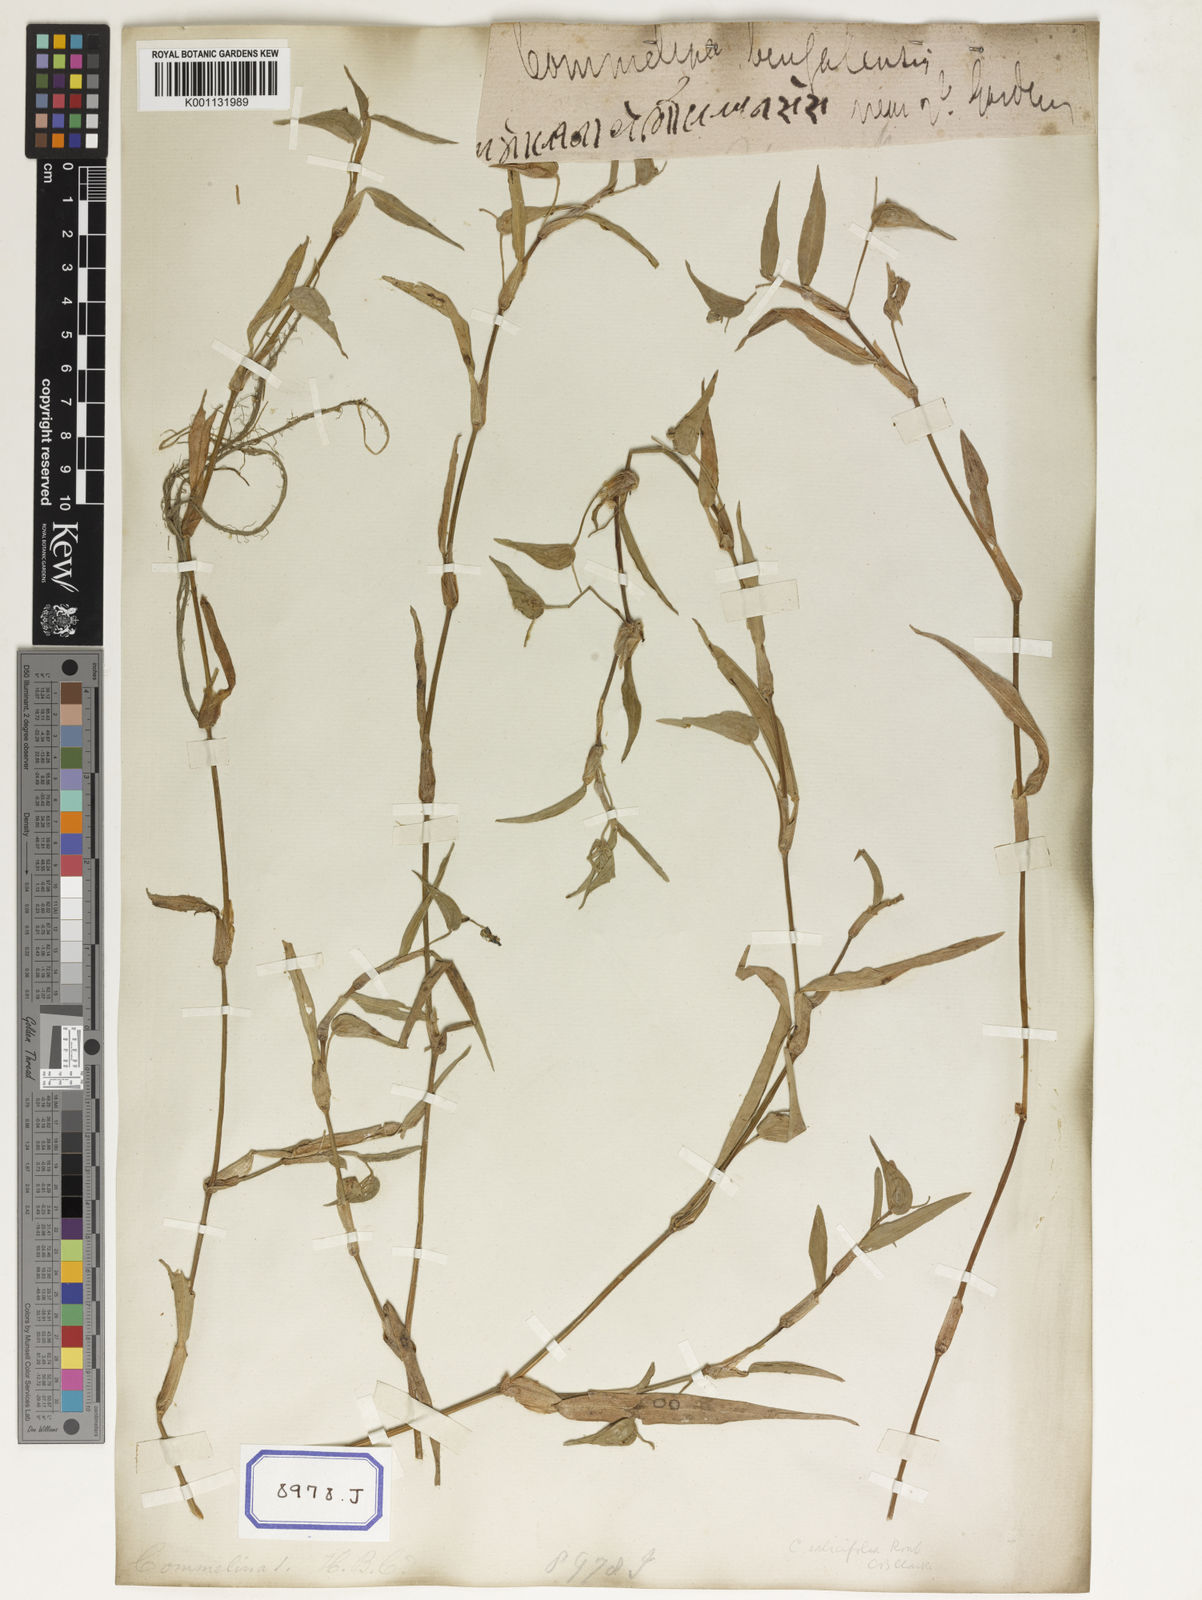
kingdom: Plantae
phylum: Tracheophyta
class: Liliopsida
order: Commelinales
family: Commelinaceae
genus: Commelina
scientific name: Commelina communis
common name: Asiatic dayflower
